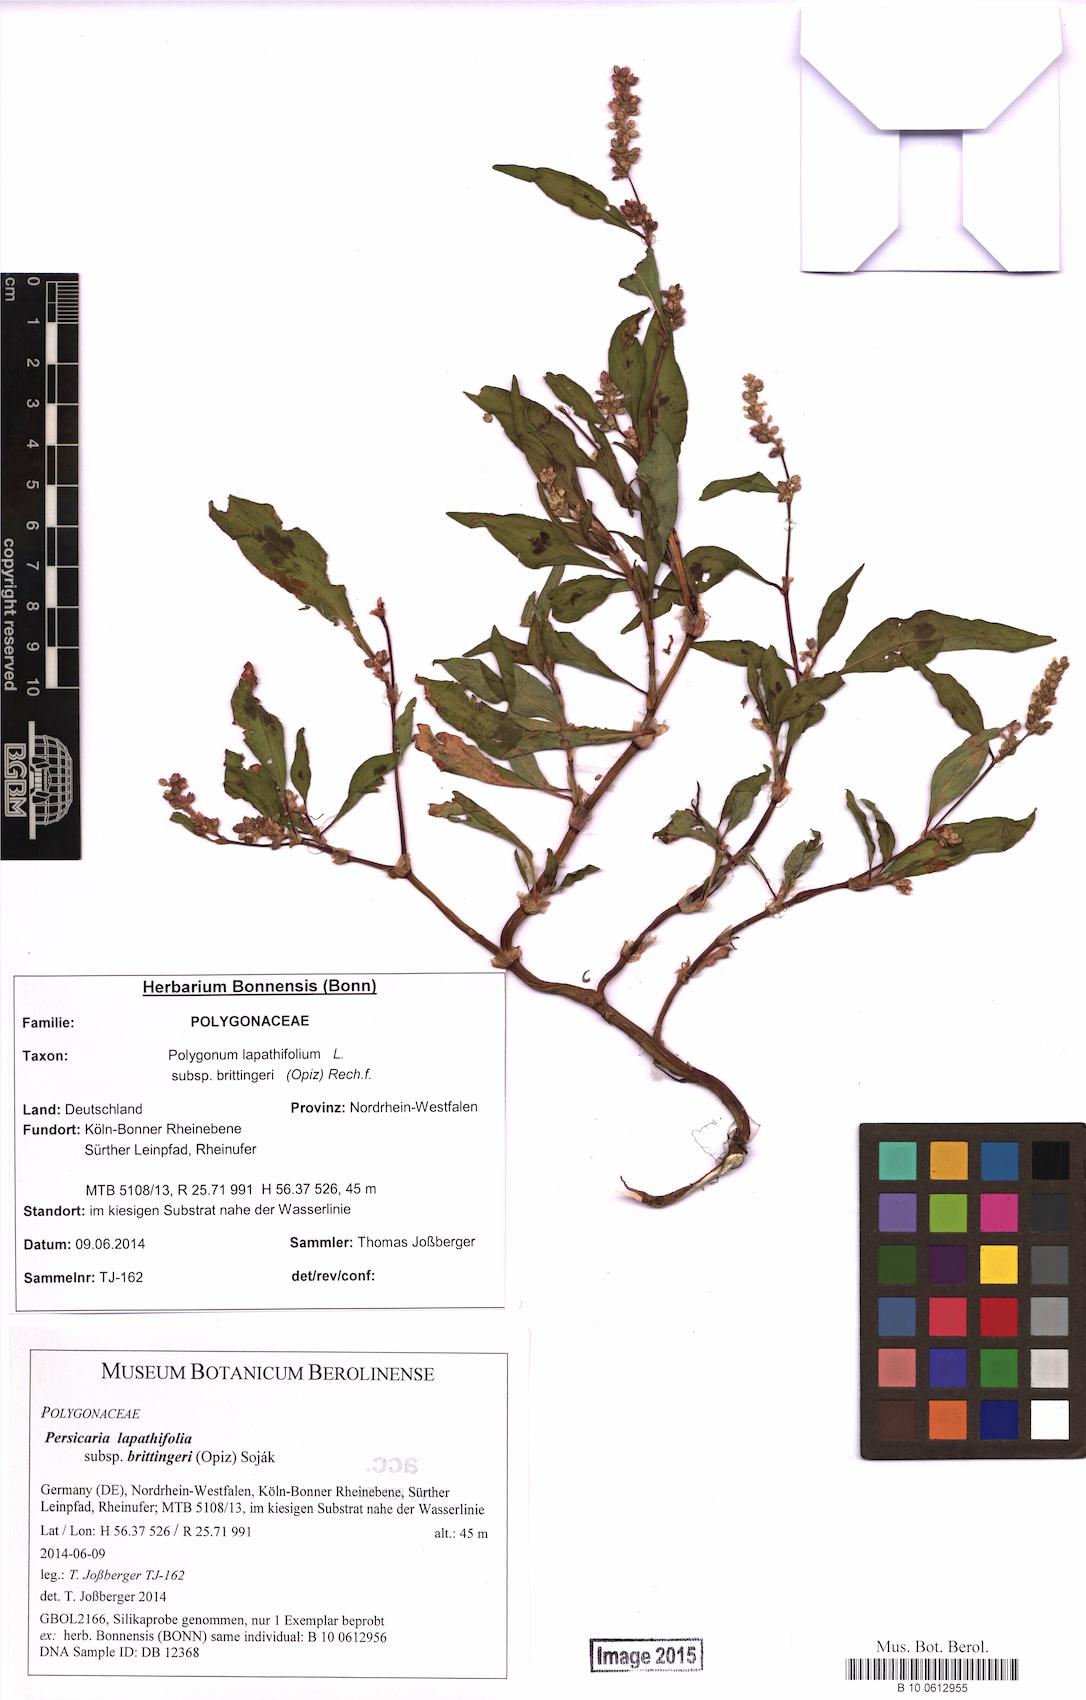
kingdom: Plantae
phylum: Tracheophyta
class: Magnoliopsida
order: Caryophyllales
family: Polygonaceae
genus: Persicaria
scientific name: Persicaria lapathifolia
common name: Curlytop knotweed
